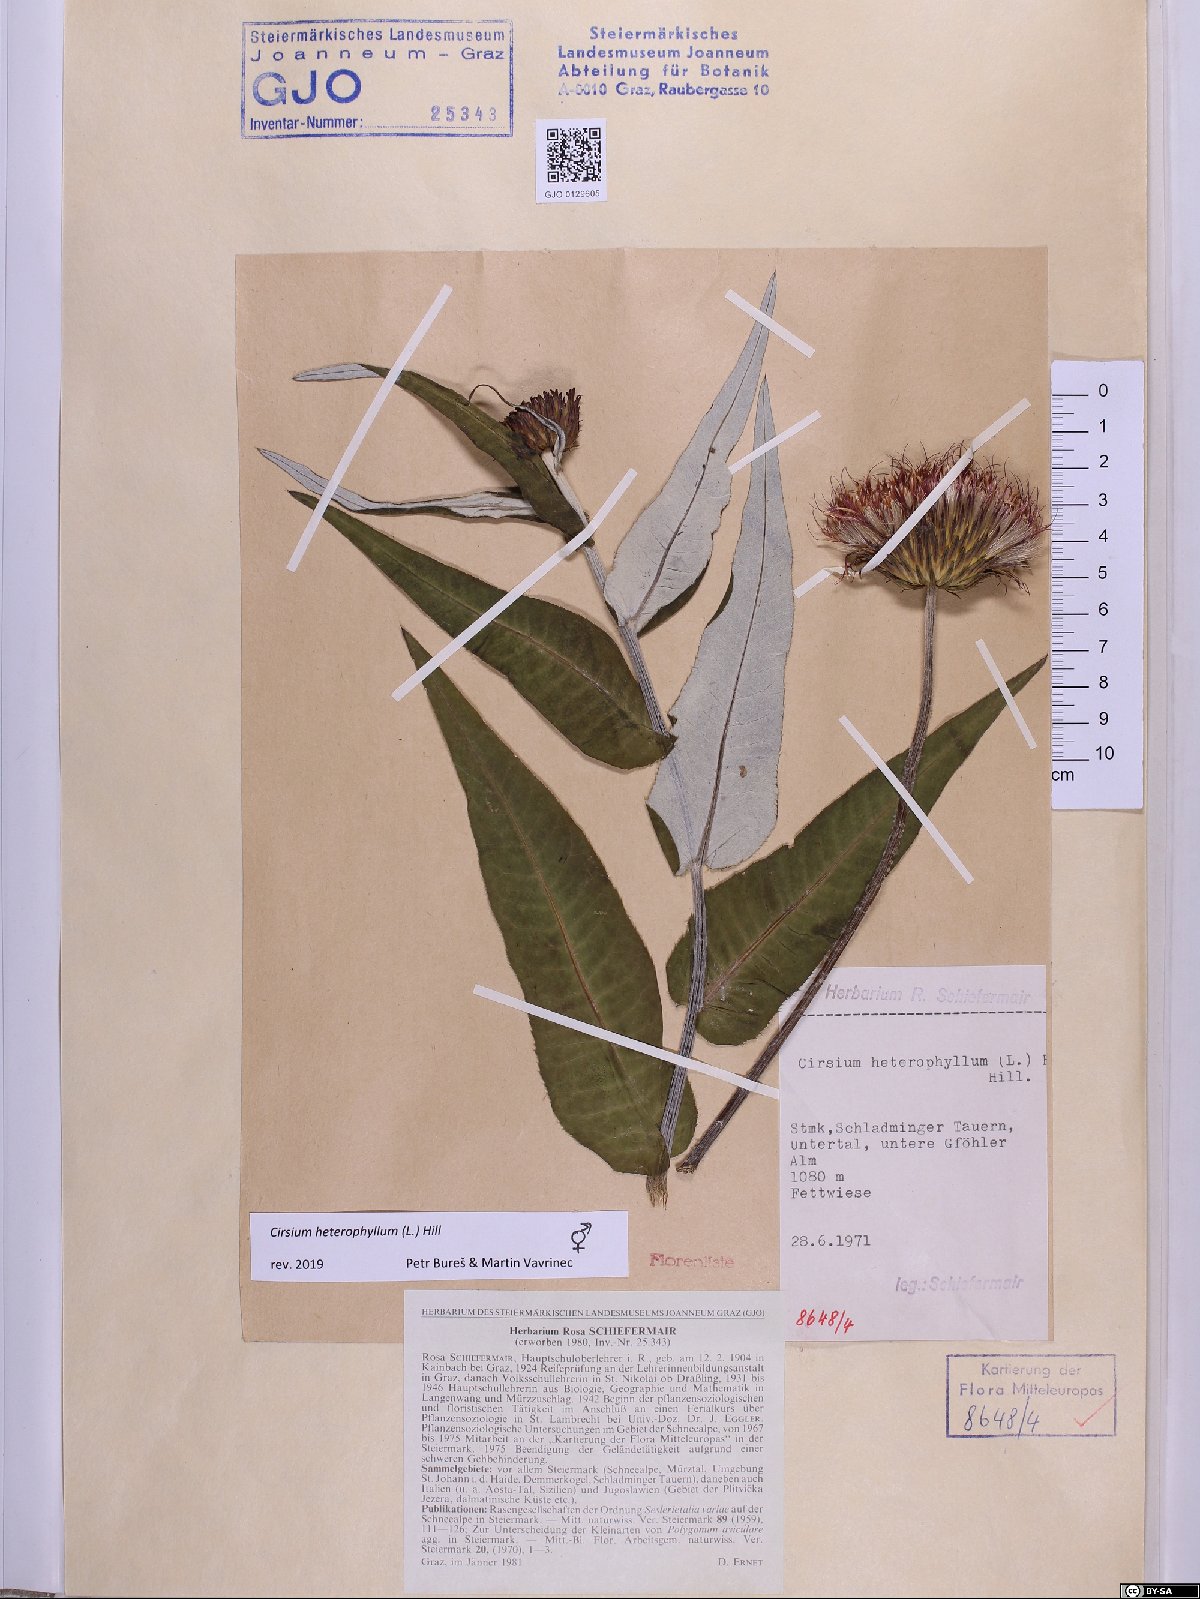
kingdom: Plantae
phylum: Tracheophyta
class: Magnoliopsida
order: Asterales
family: Asteraceae
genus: Cirsium
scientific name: Cirsium heterophyllum
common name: Melancholy thistle
